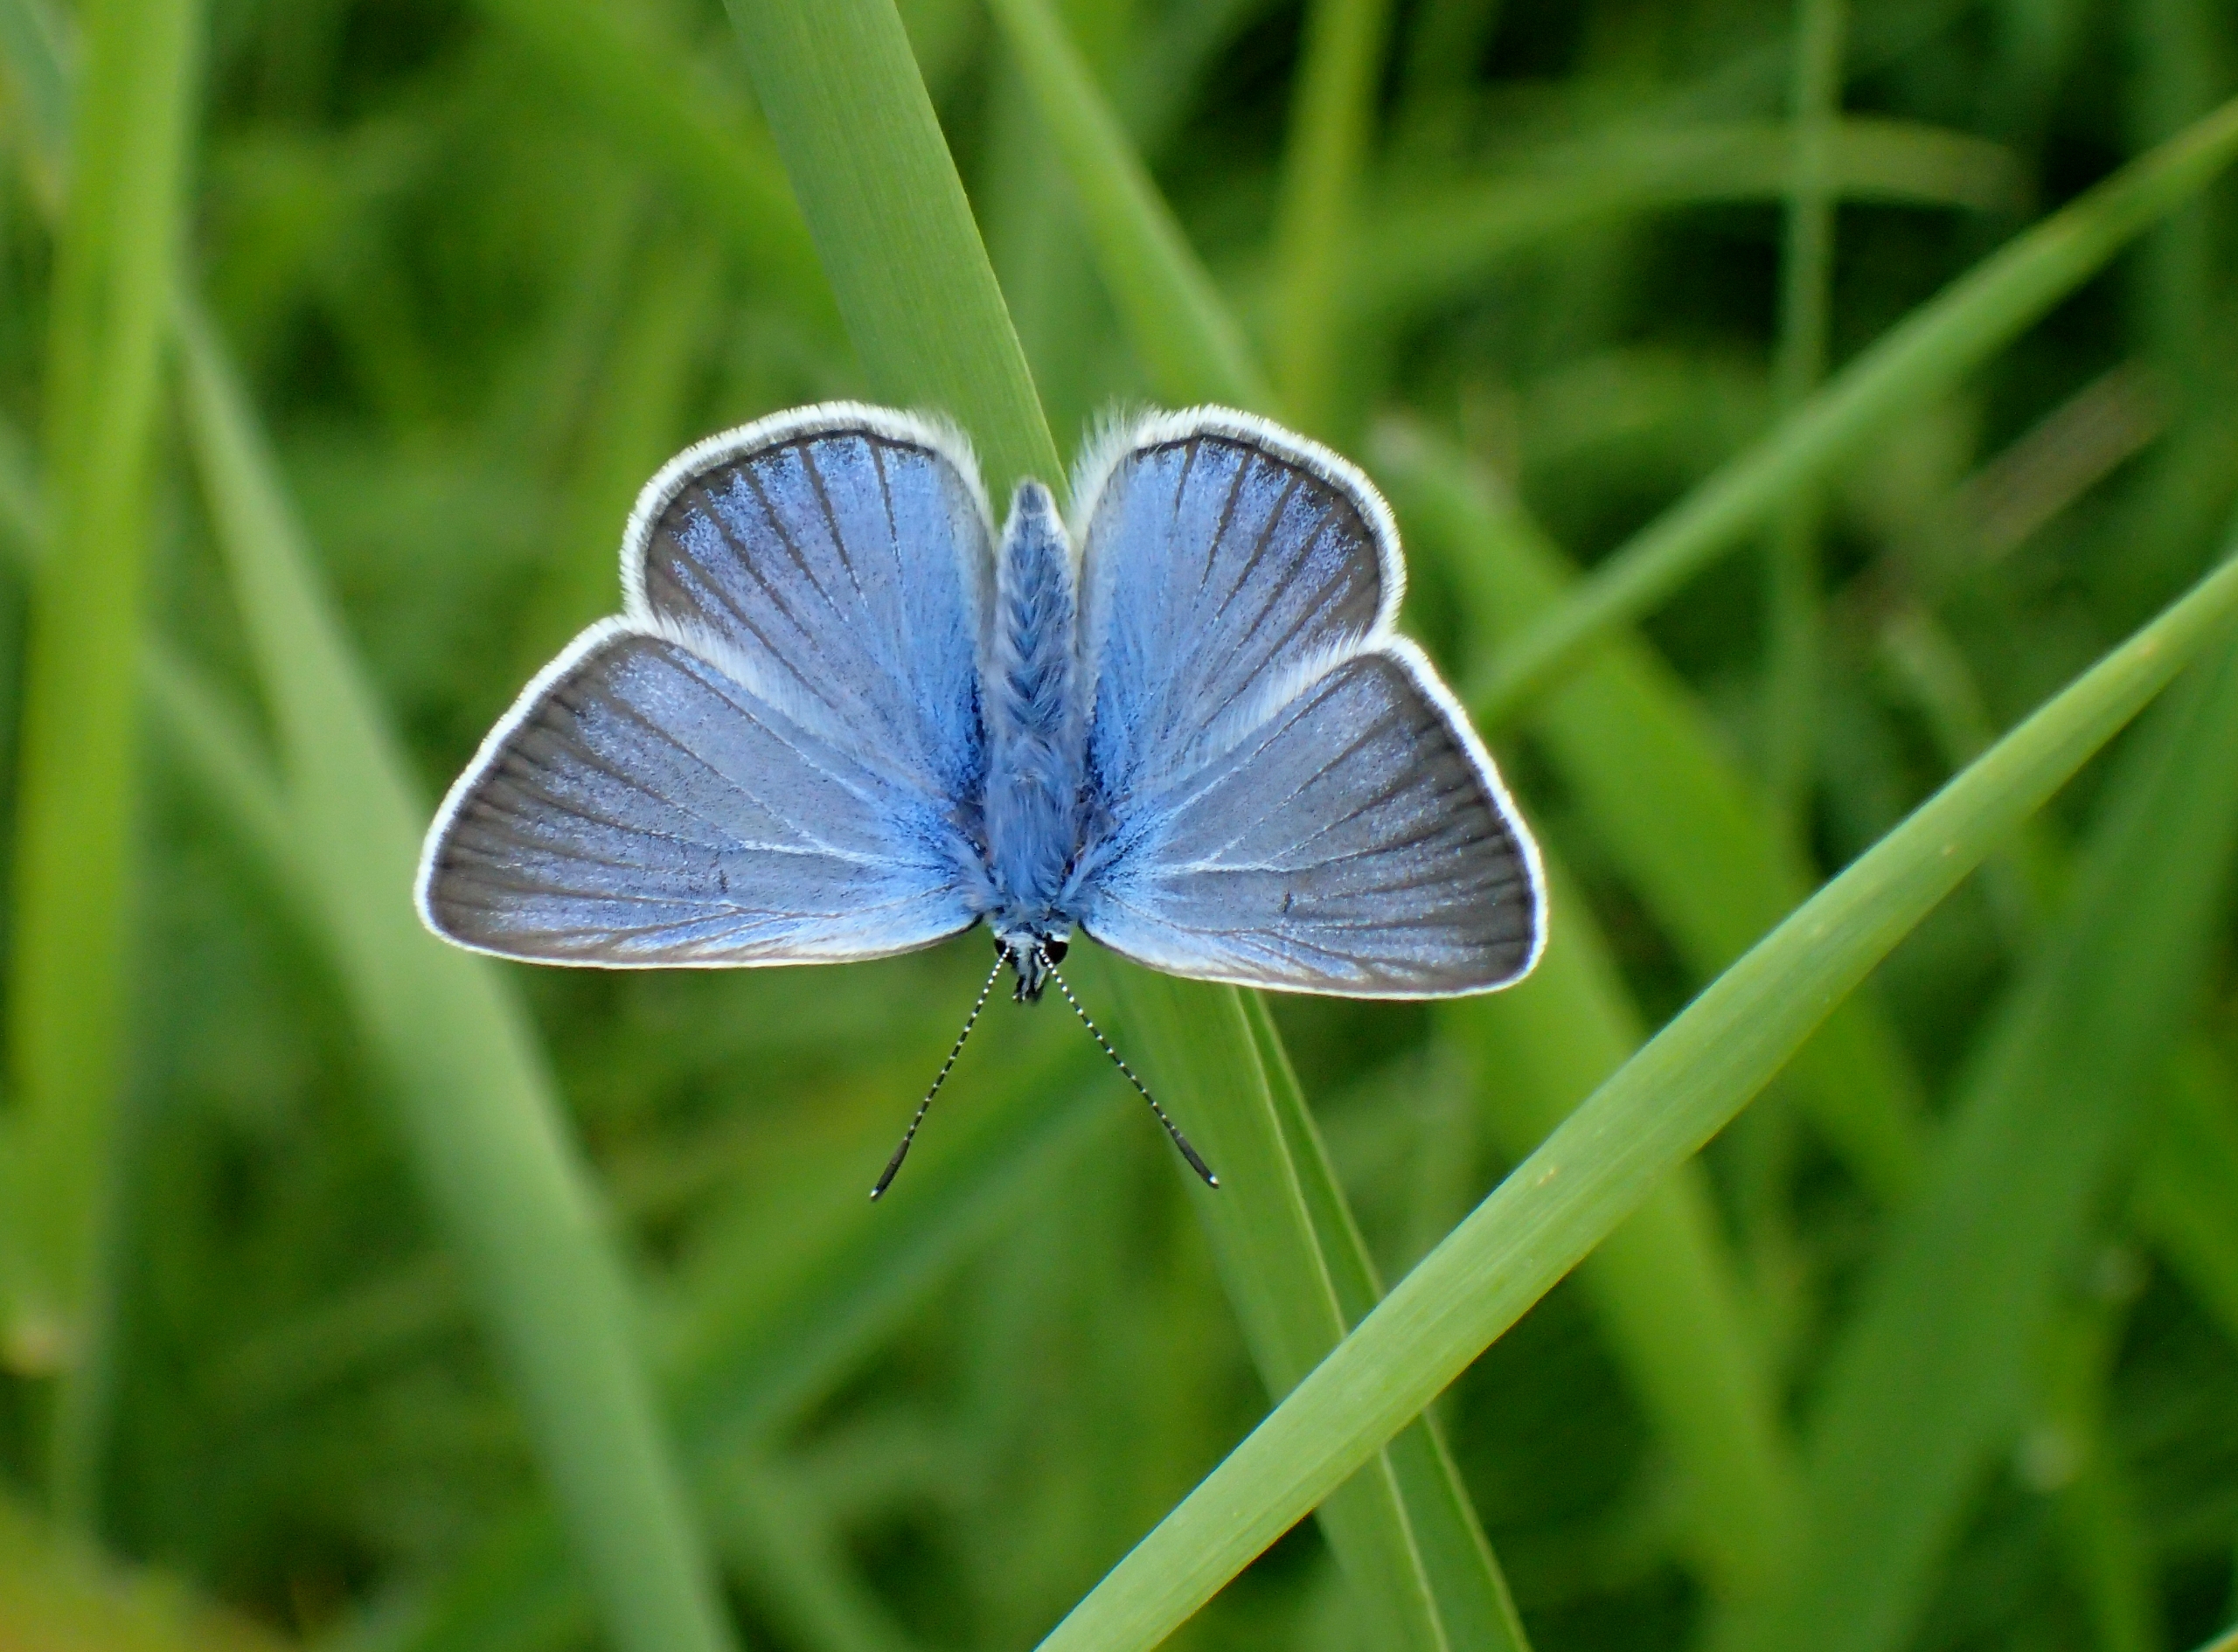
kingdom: Animalia
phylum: Arthropoda
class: Insecta
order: Lepidoptera
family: Lycaenidae
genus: Plebejus
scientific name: Plebejus amanda
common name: Isblåfugl
